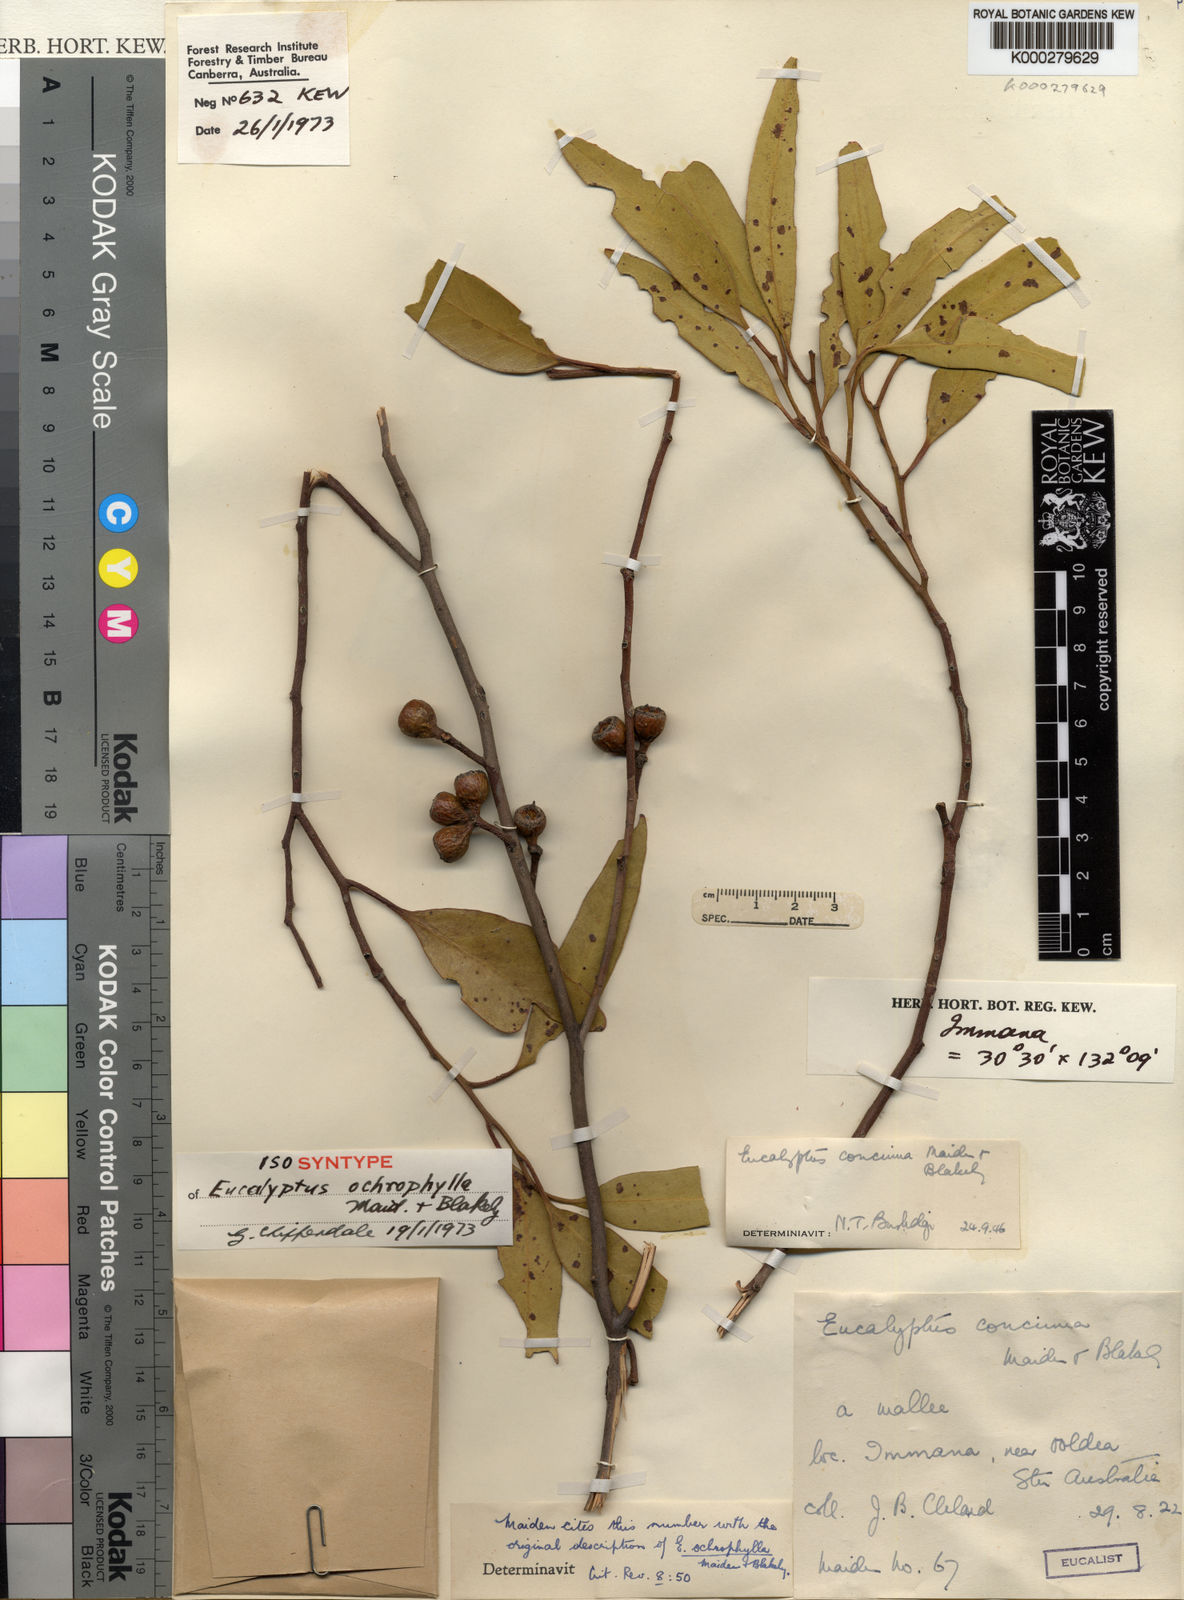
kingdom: Plantae
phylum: Tracheophyta
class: Magnoliopsida
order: Myrtales
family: Myrtaceae
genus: Eucalyptus
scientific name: Eucalyptus concinna
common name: Desert gum
